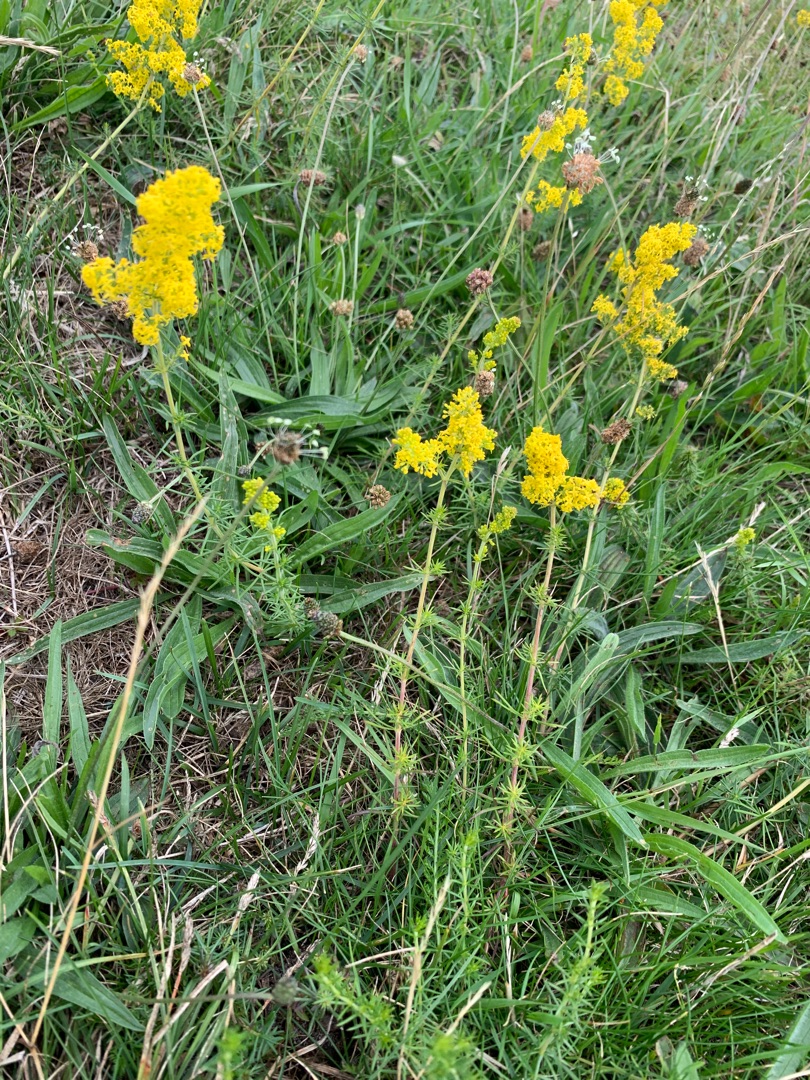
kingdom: Plantae
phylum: Tracheophyta
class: Magnoliopsida
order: Gentianales
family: Rubiaceae
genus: Galium
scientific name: Galium verum
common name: Gul snerre
